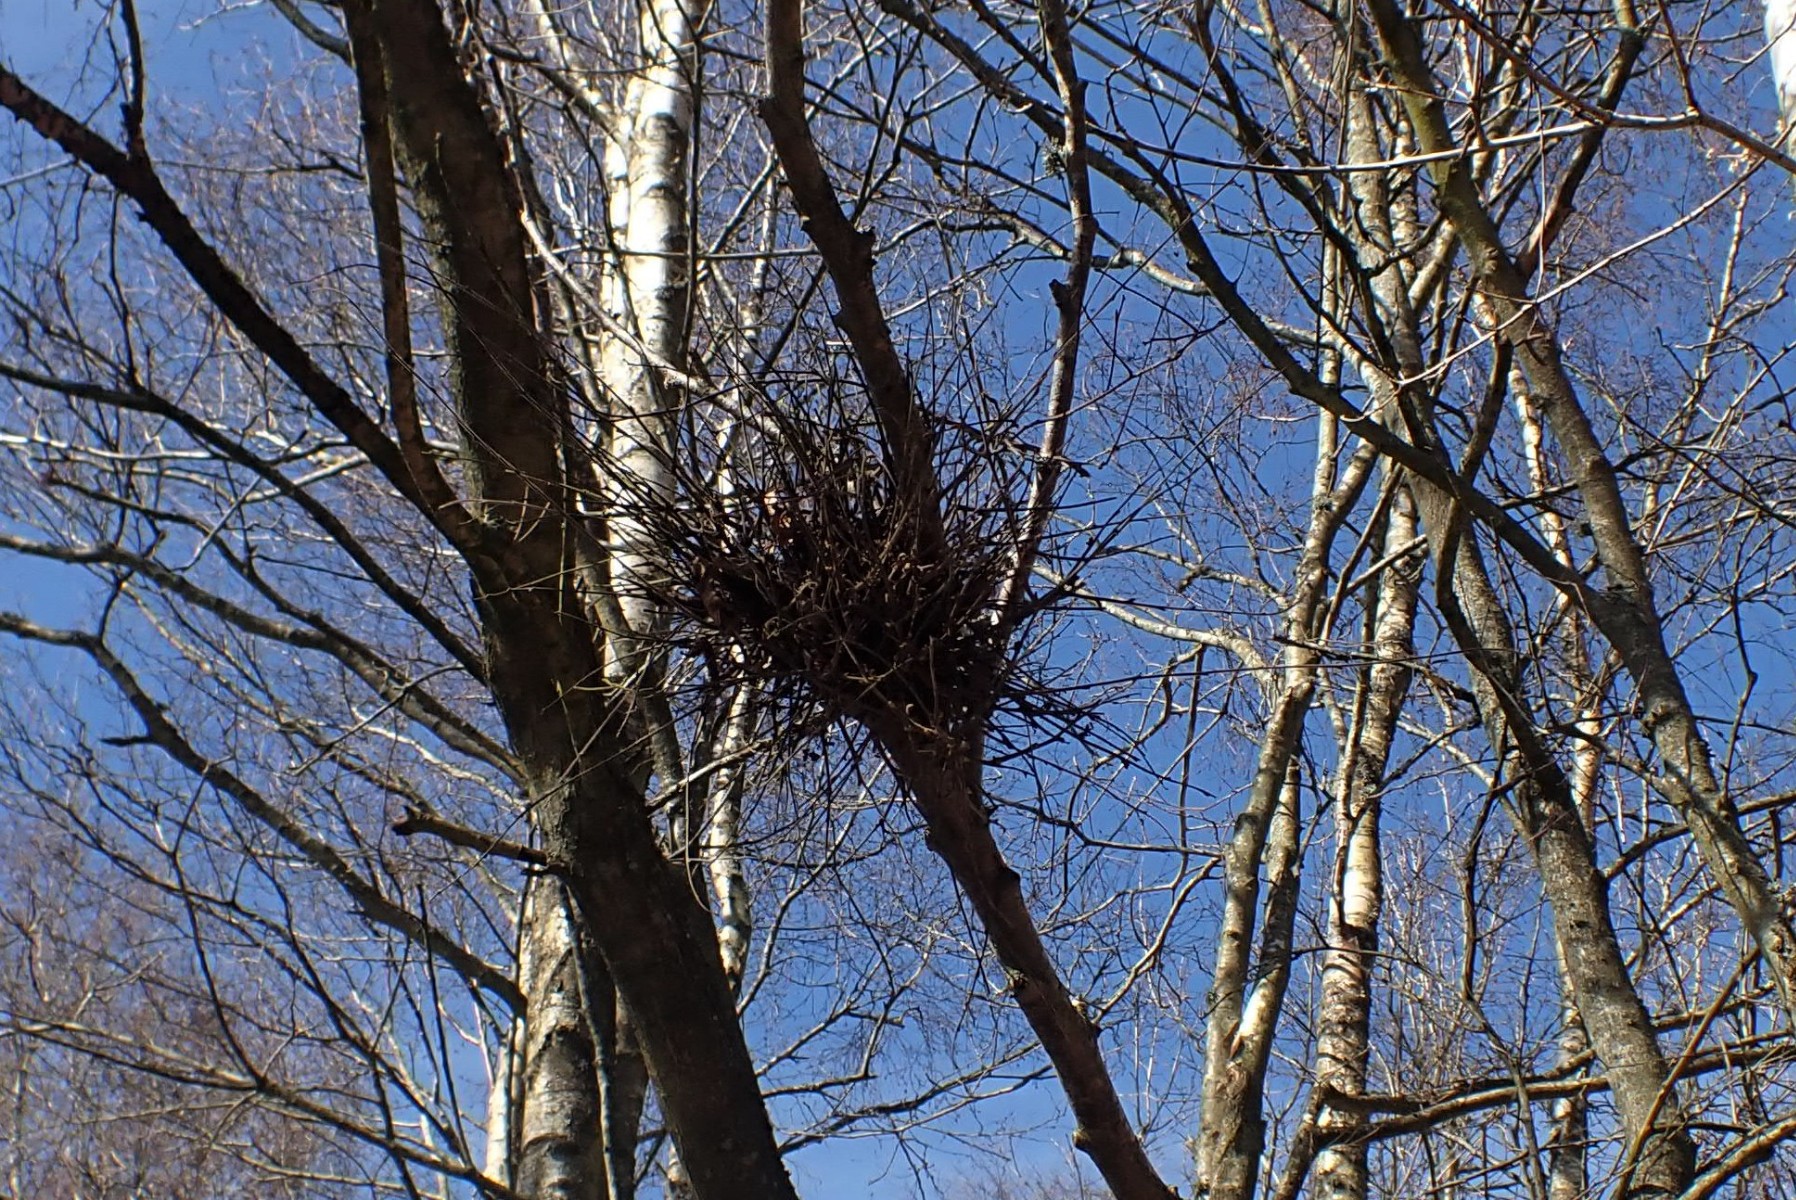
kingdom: Fungi
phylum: Ascomycota
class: Taphrinomycetes
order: Taphrinales
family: Taphrinaceae
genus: Taphrina
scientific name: Taphrina betulina
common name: hekse-sækdug
